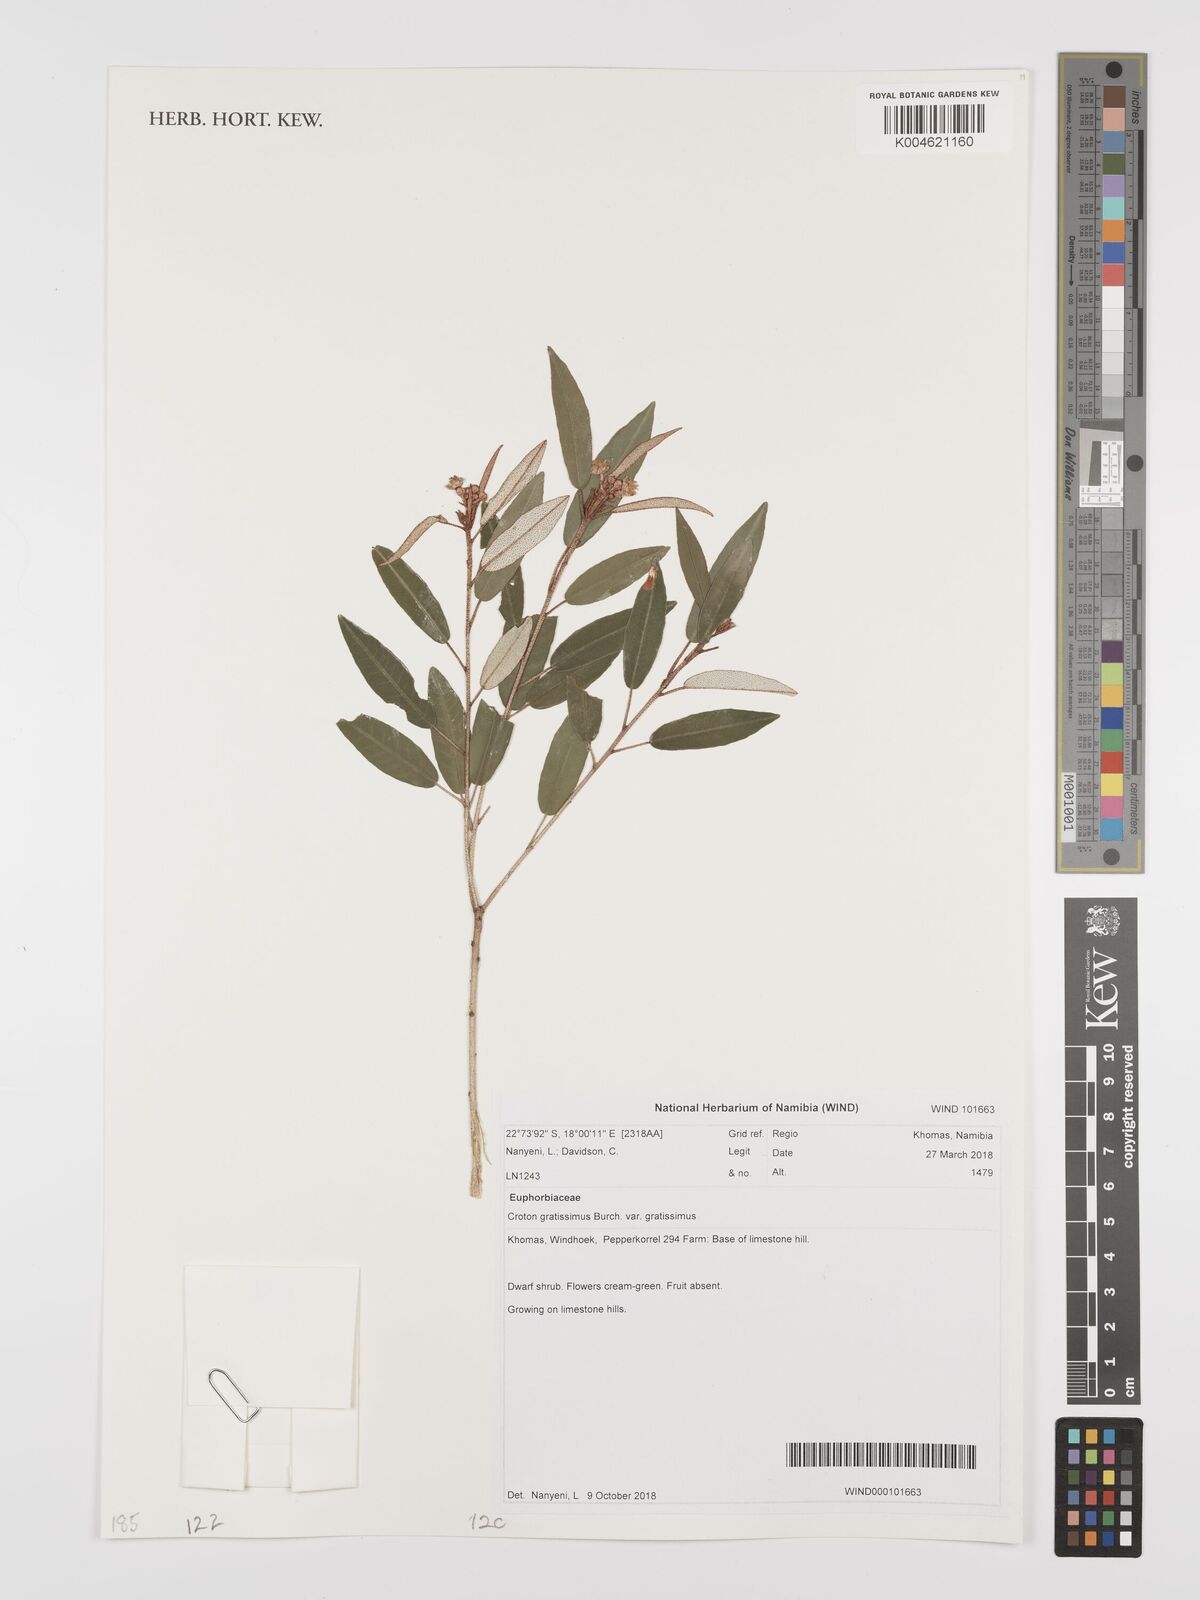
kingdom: Plantae
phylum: Tracheophyta
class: Magnoliopsida
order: Malpighiales
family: Euphorbiaceae
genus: Croton
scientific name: Croton gratissimus
